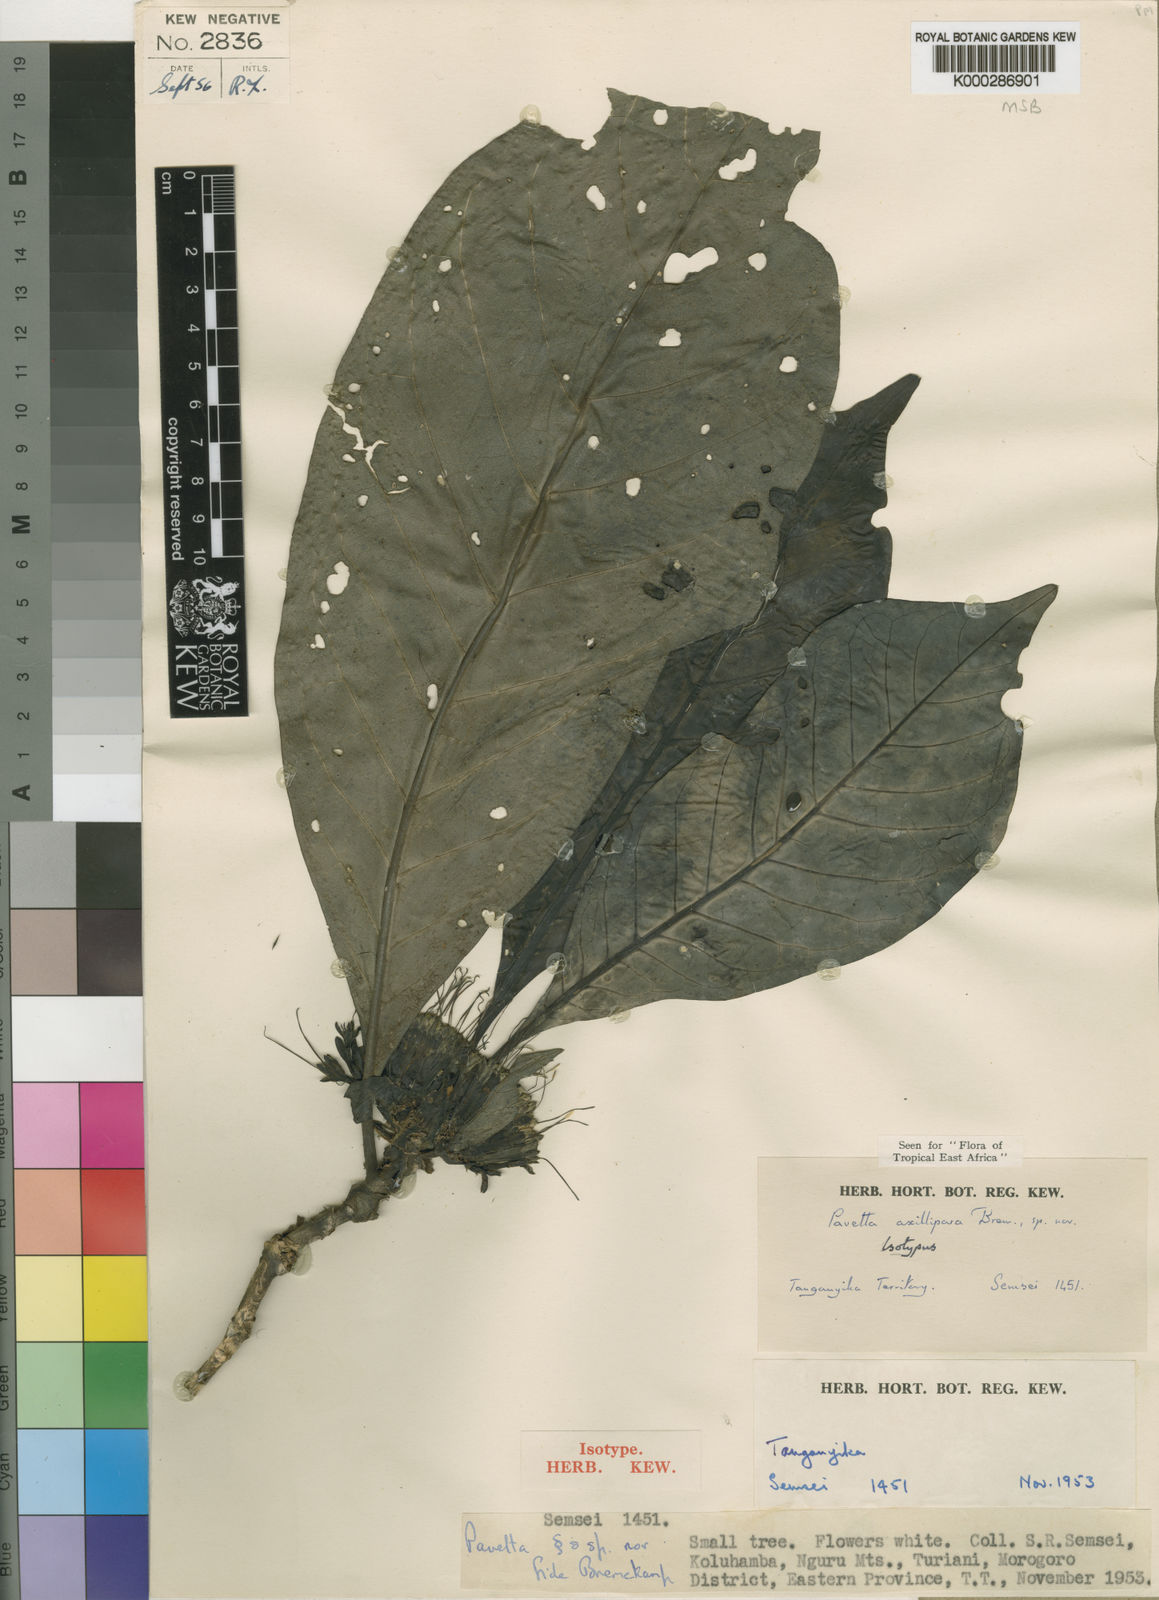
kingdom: Plantae
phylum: Tracheophyta
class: Magnoliopsida
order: Gentianales
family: Rubiaceae
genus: Pavetta
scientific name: Pavetta axillipara
